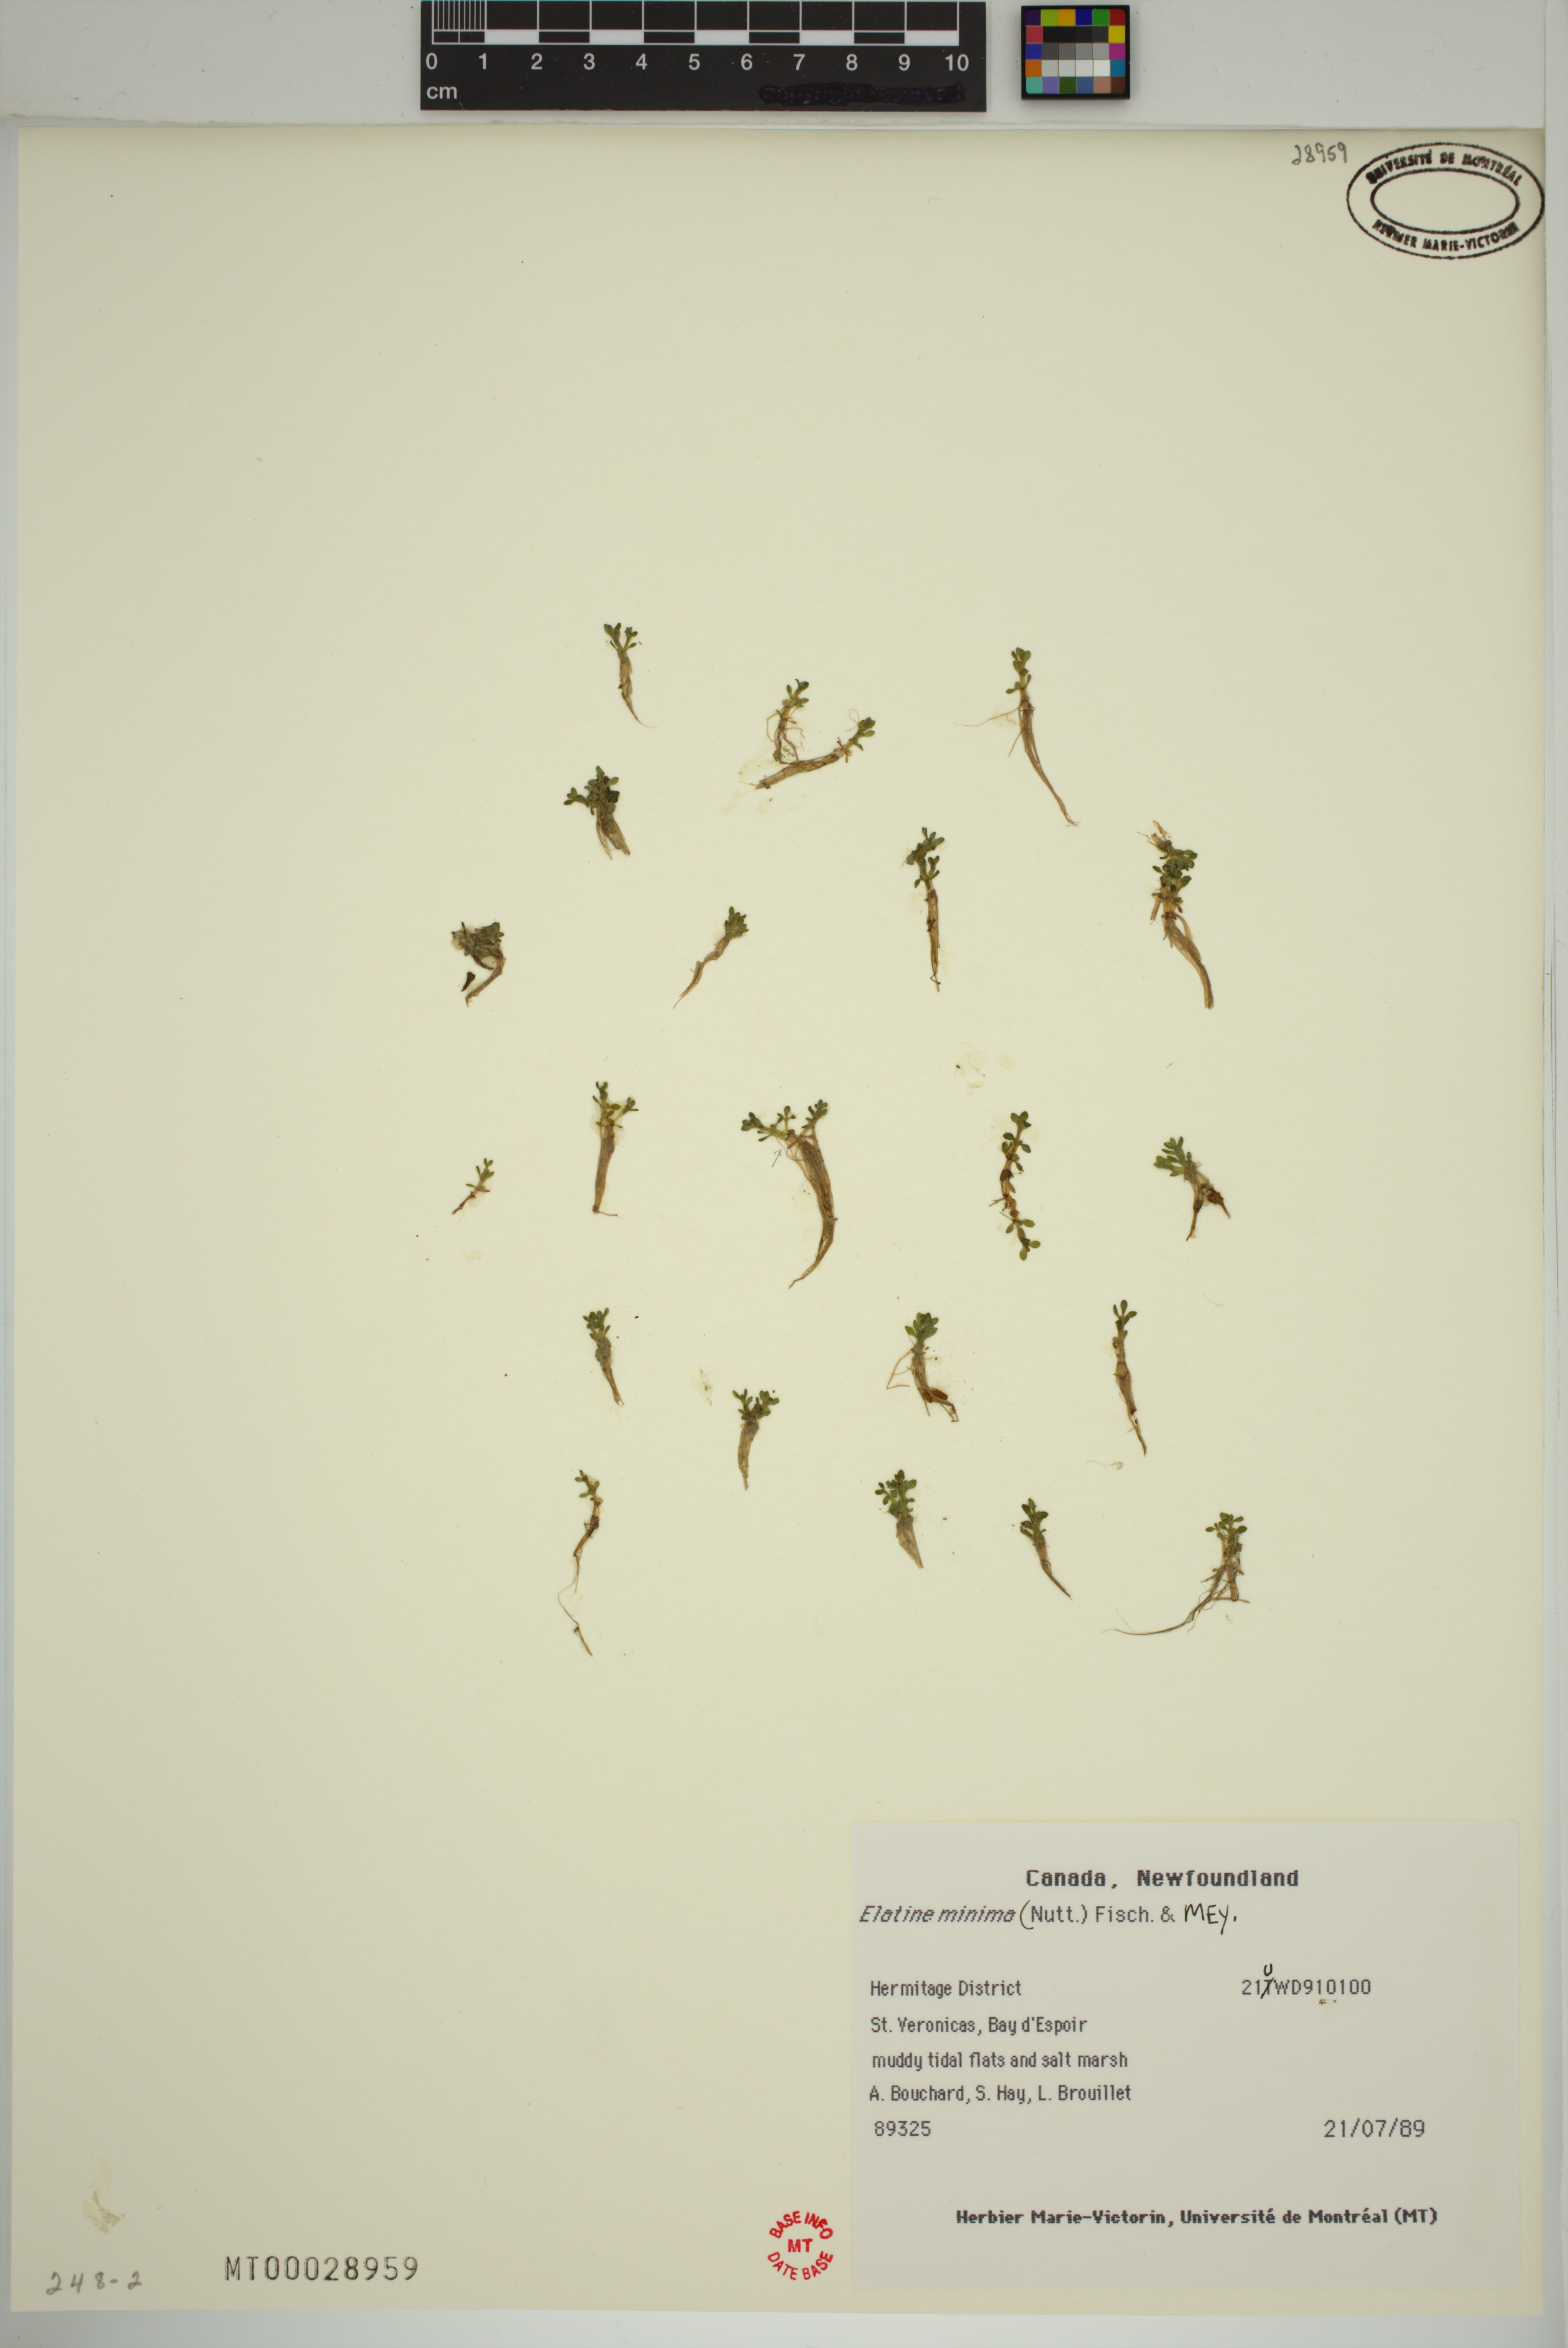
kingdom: Plantae
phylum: Tracheophyta
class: Magnoliopsida
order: Malpighiales
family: Elatinaceae
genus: Elatine
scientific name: Elatine minima
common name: Small waterwort
